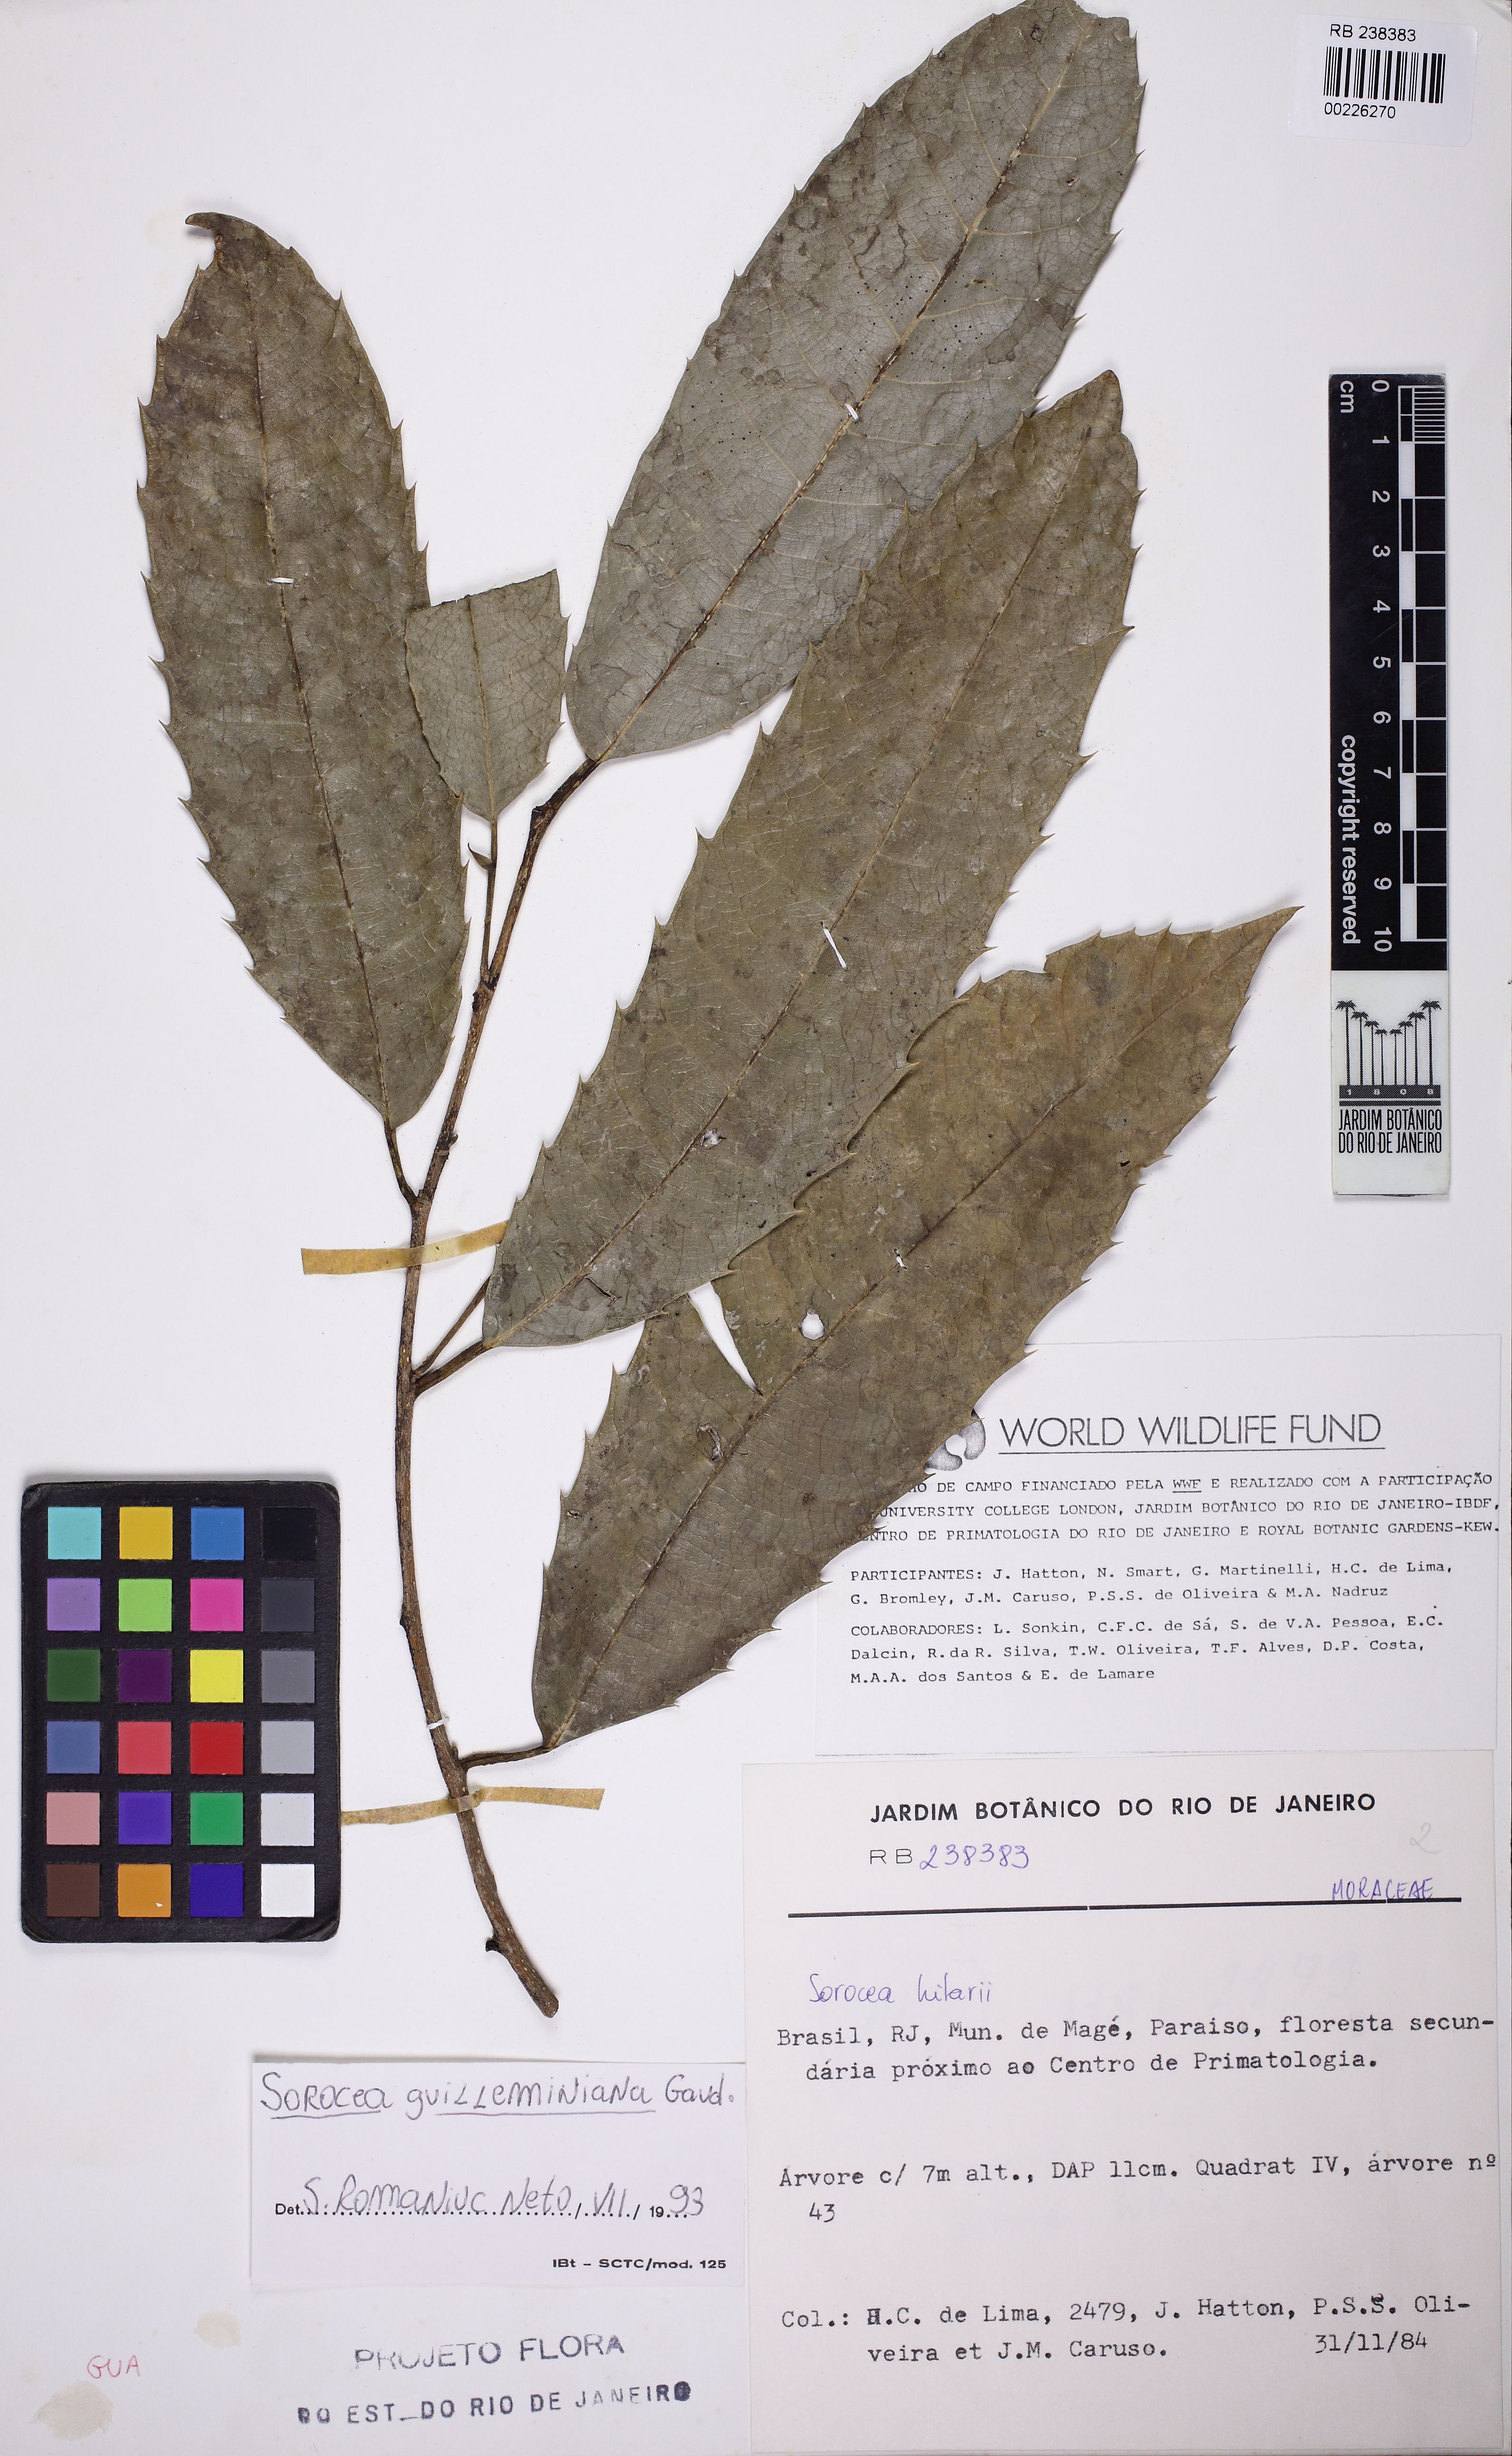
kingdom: Plantae
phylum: Tracheophyta
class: Magnoliopsida
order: Rosales
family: Moraceae
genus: Sorocea
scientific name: Sorocea guilleminiana
